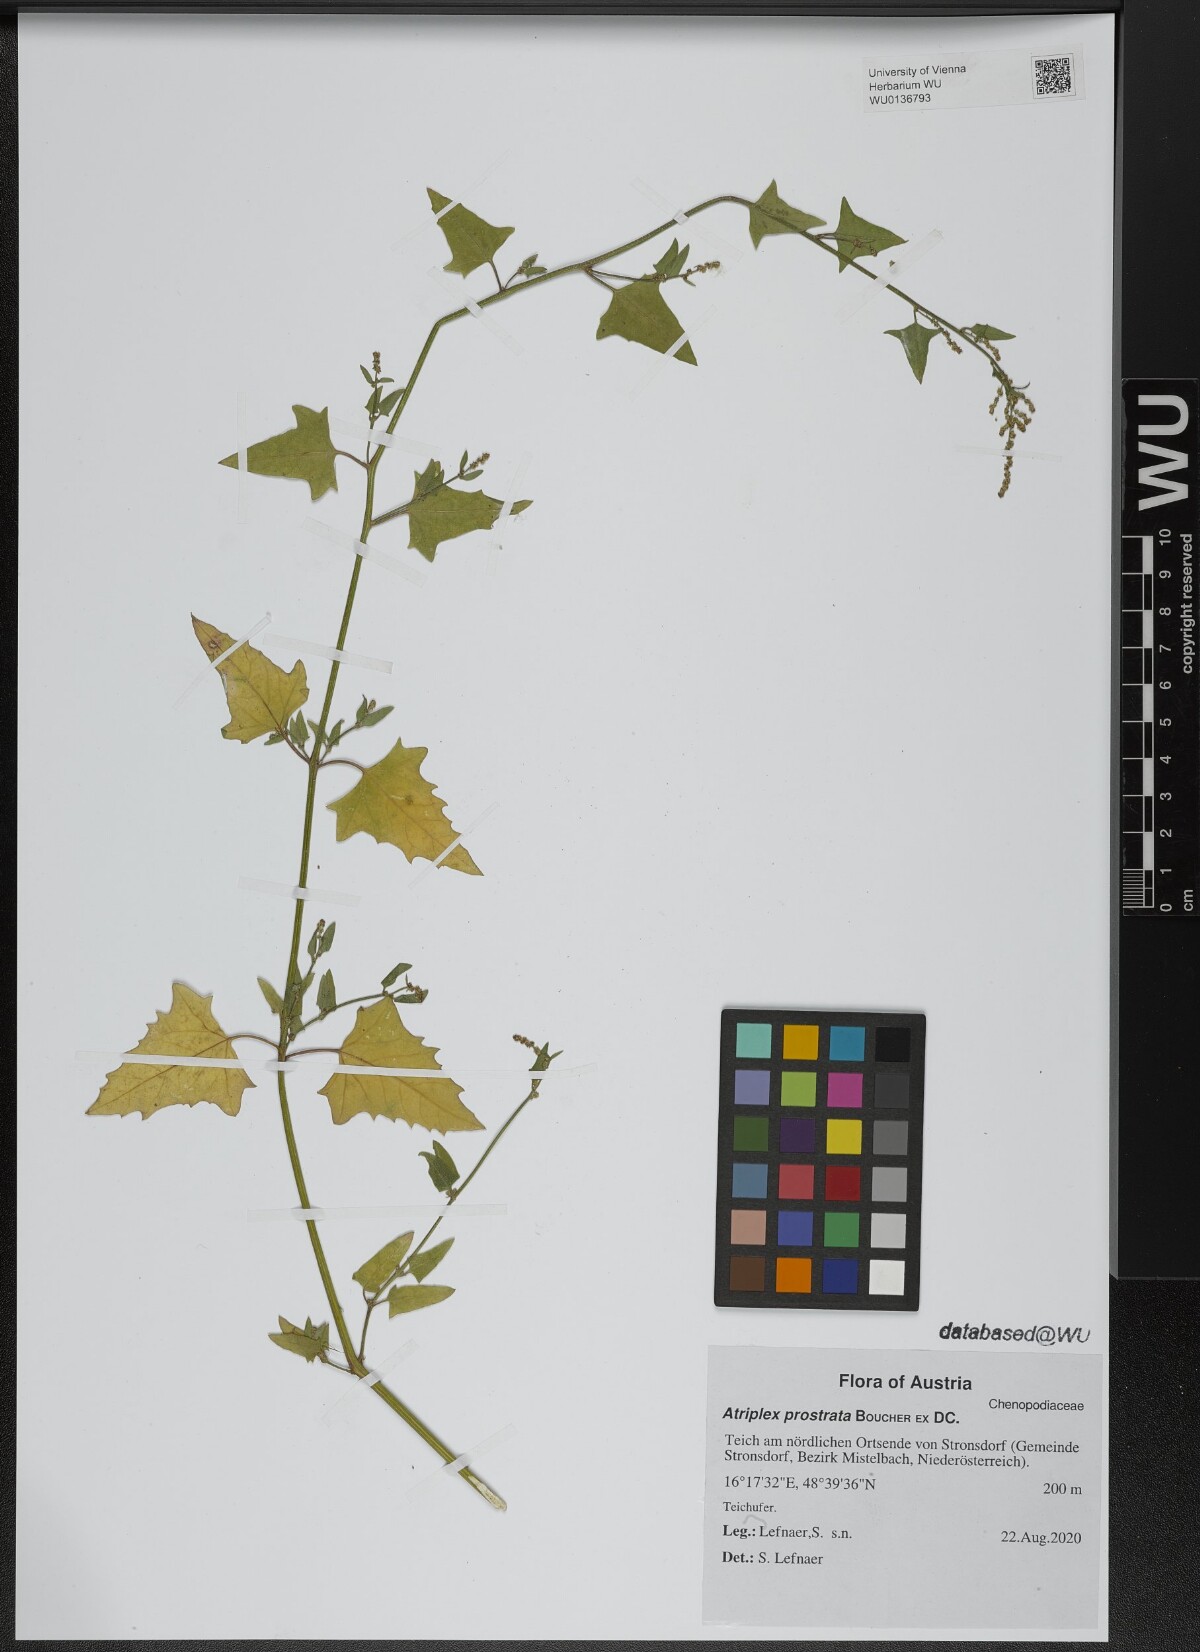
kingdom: Plantae
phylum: Tracheophyta
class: Magnoliopsida
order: Caryophyllales
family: Amaranthaceae
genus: Atriplex
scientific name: Atriplex prostrata
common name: Spear-leaved orache
